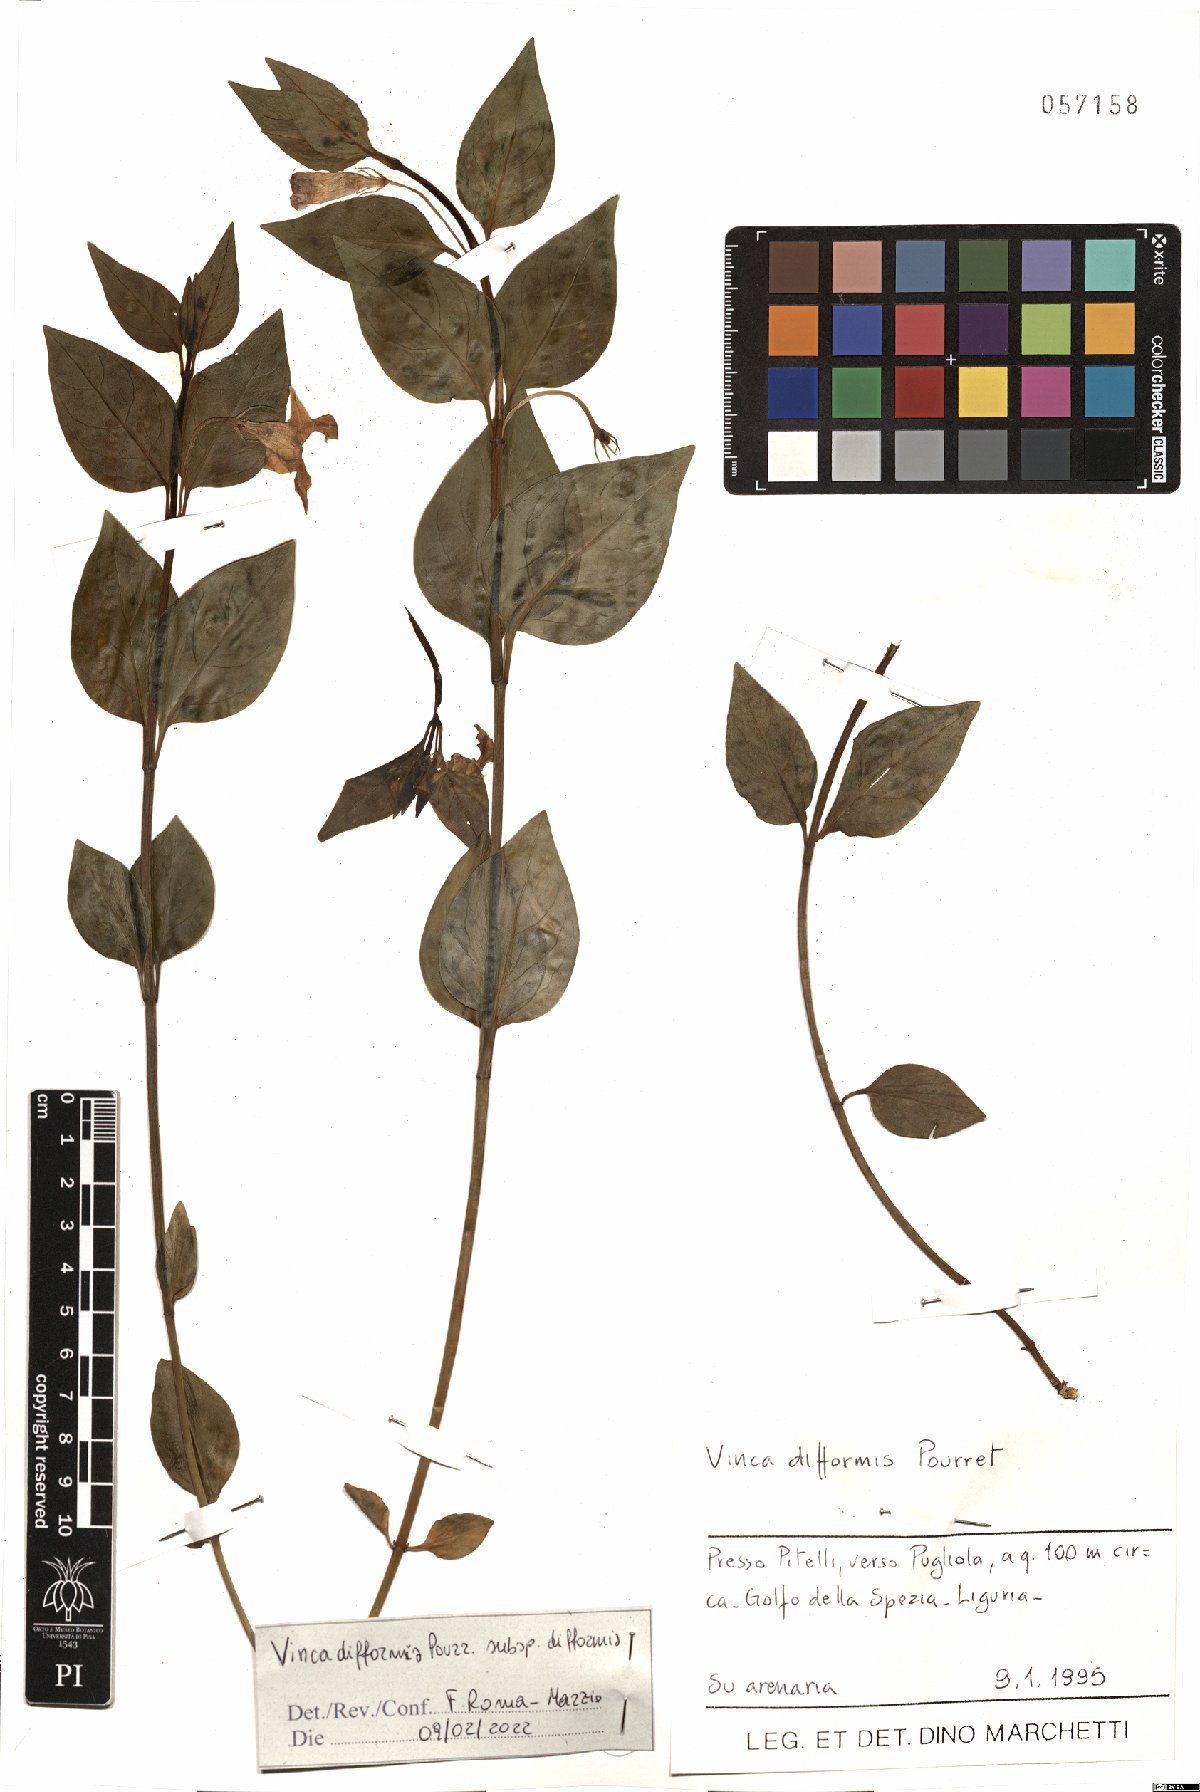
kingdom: Plantae
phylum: Tracheophyta
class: Magnoliopsida
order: Gentianales
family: Apocynaceae
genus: Vinca
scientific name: Vinca difformis
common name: Intermediate periwinkle
